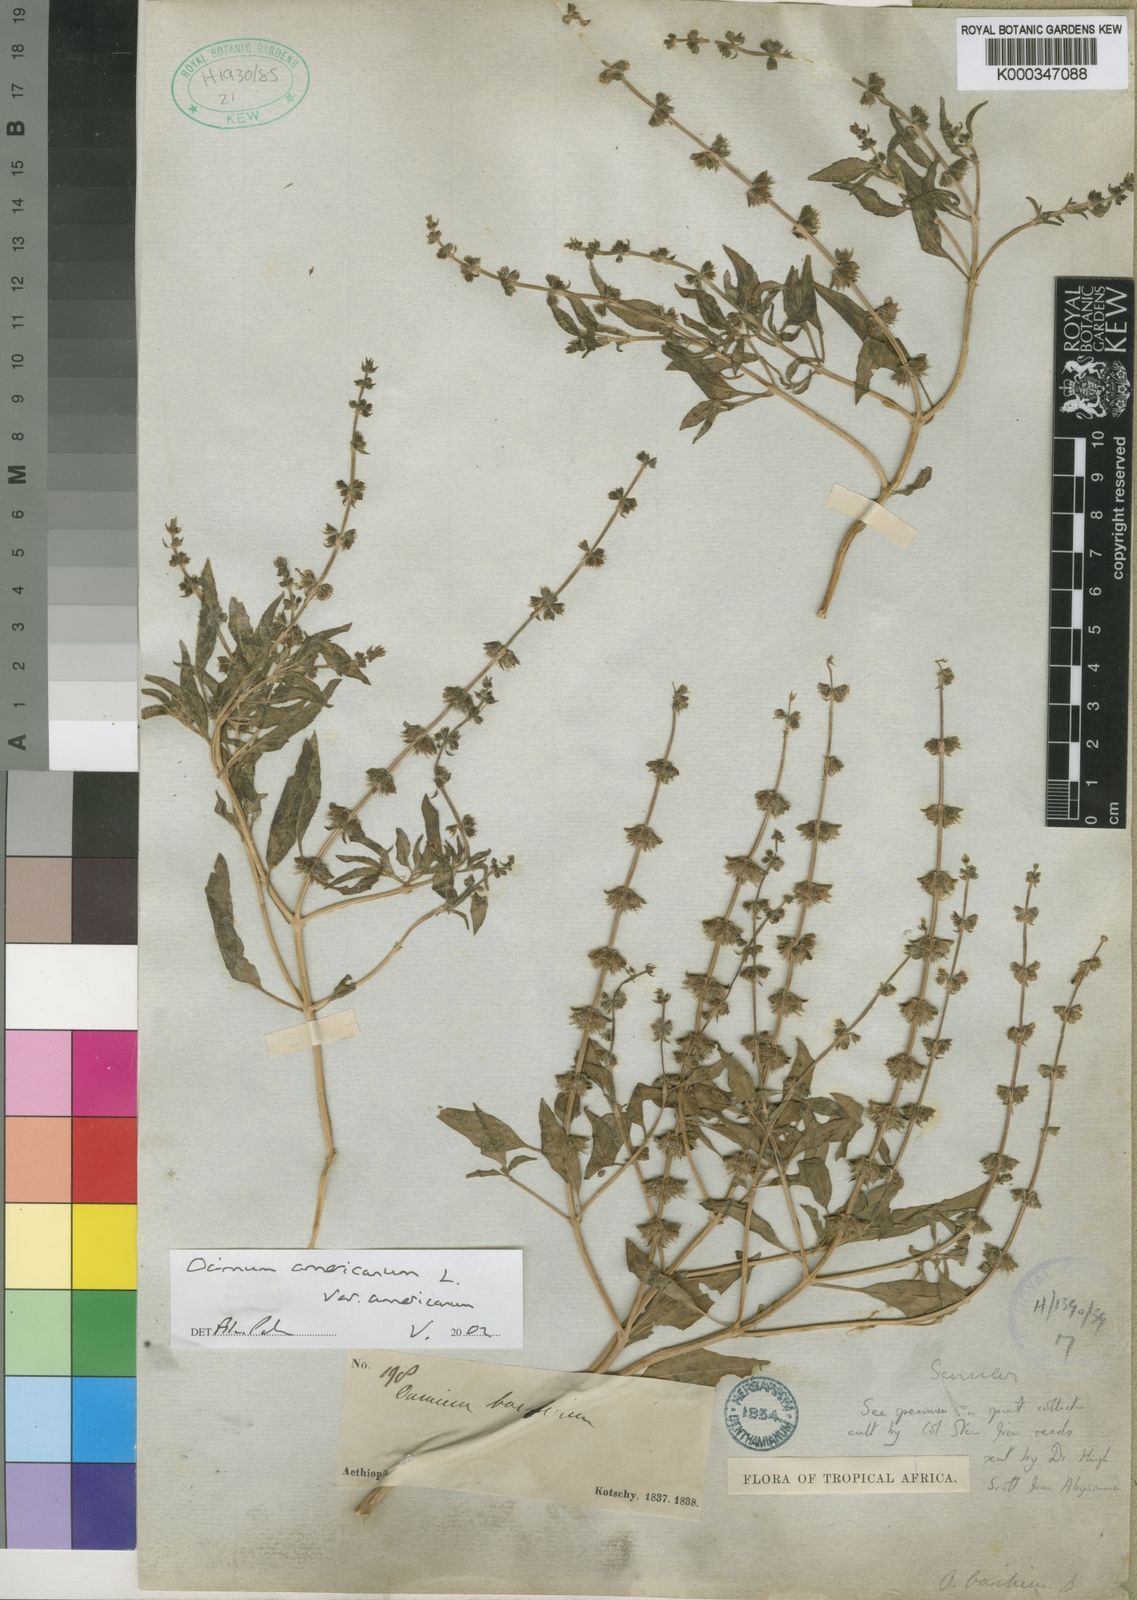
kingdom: Plantae
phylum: Tracheophyta
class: Magnoliopsida
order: Lamiales
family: Lamiaceae
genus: Ocimum
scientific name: Ocimum americanum
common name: American basil
